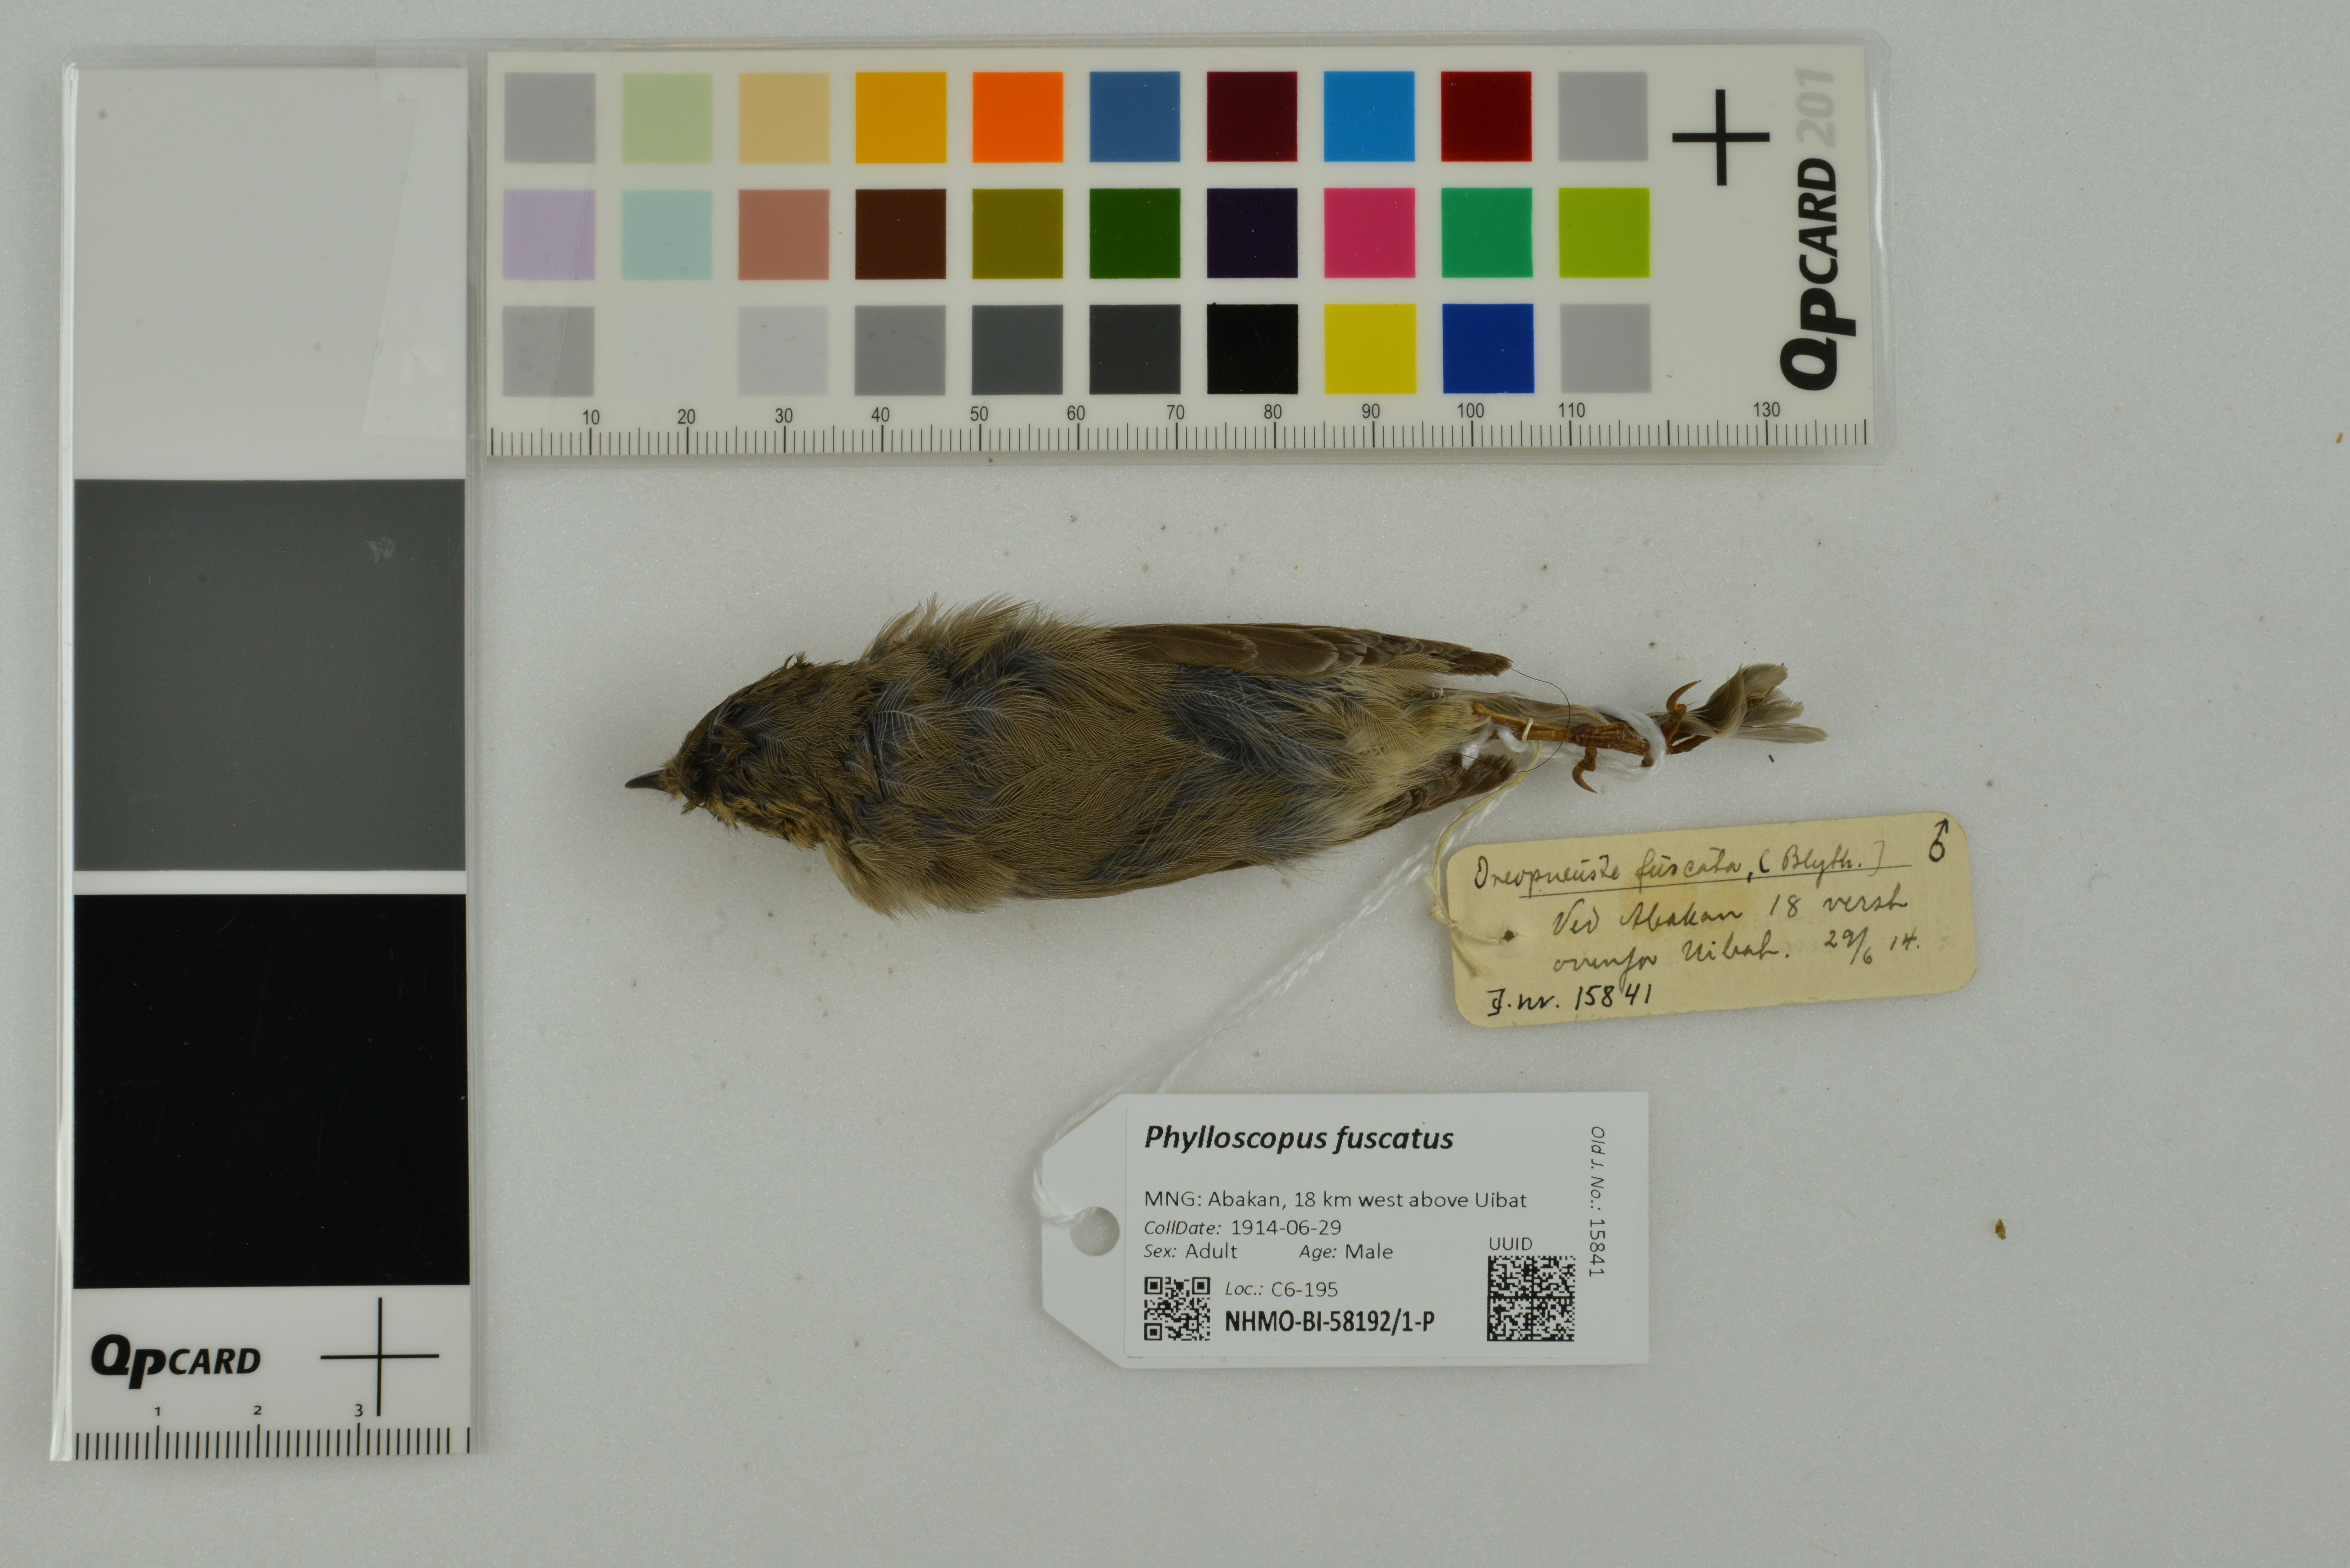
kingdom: Animalia
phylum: Chordata
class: Aves
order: Passeriformes
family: Phylloscopidae
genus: Phylloscopus
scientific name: Phylloscopus fuscatus
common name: Dusky warbler
